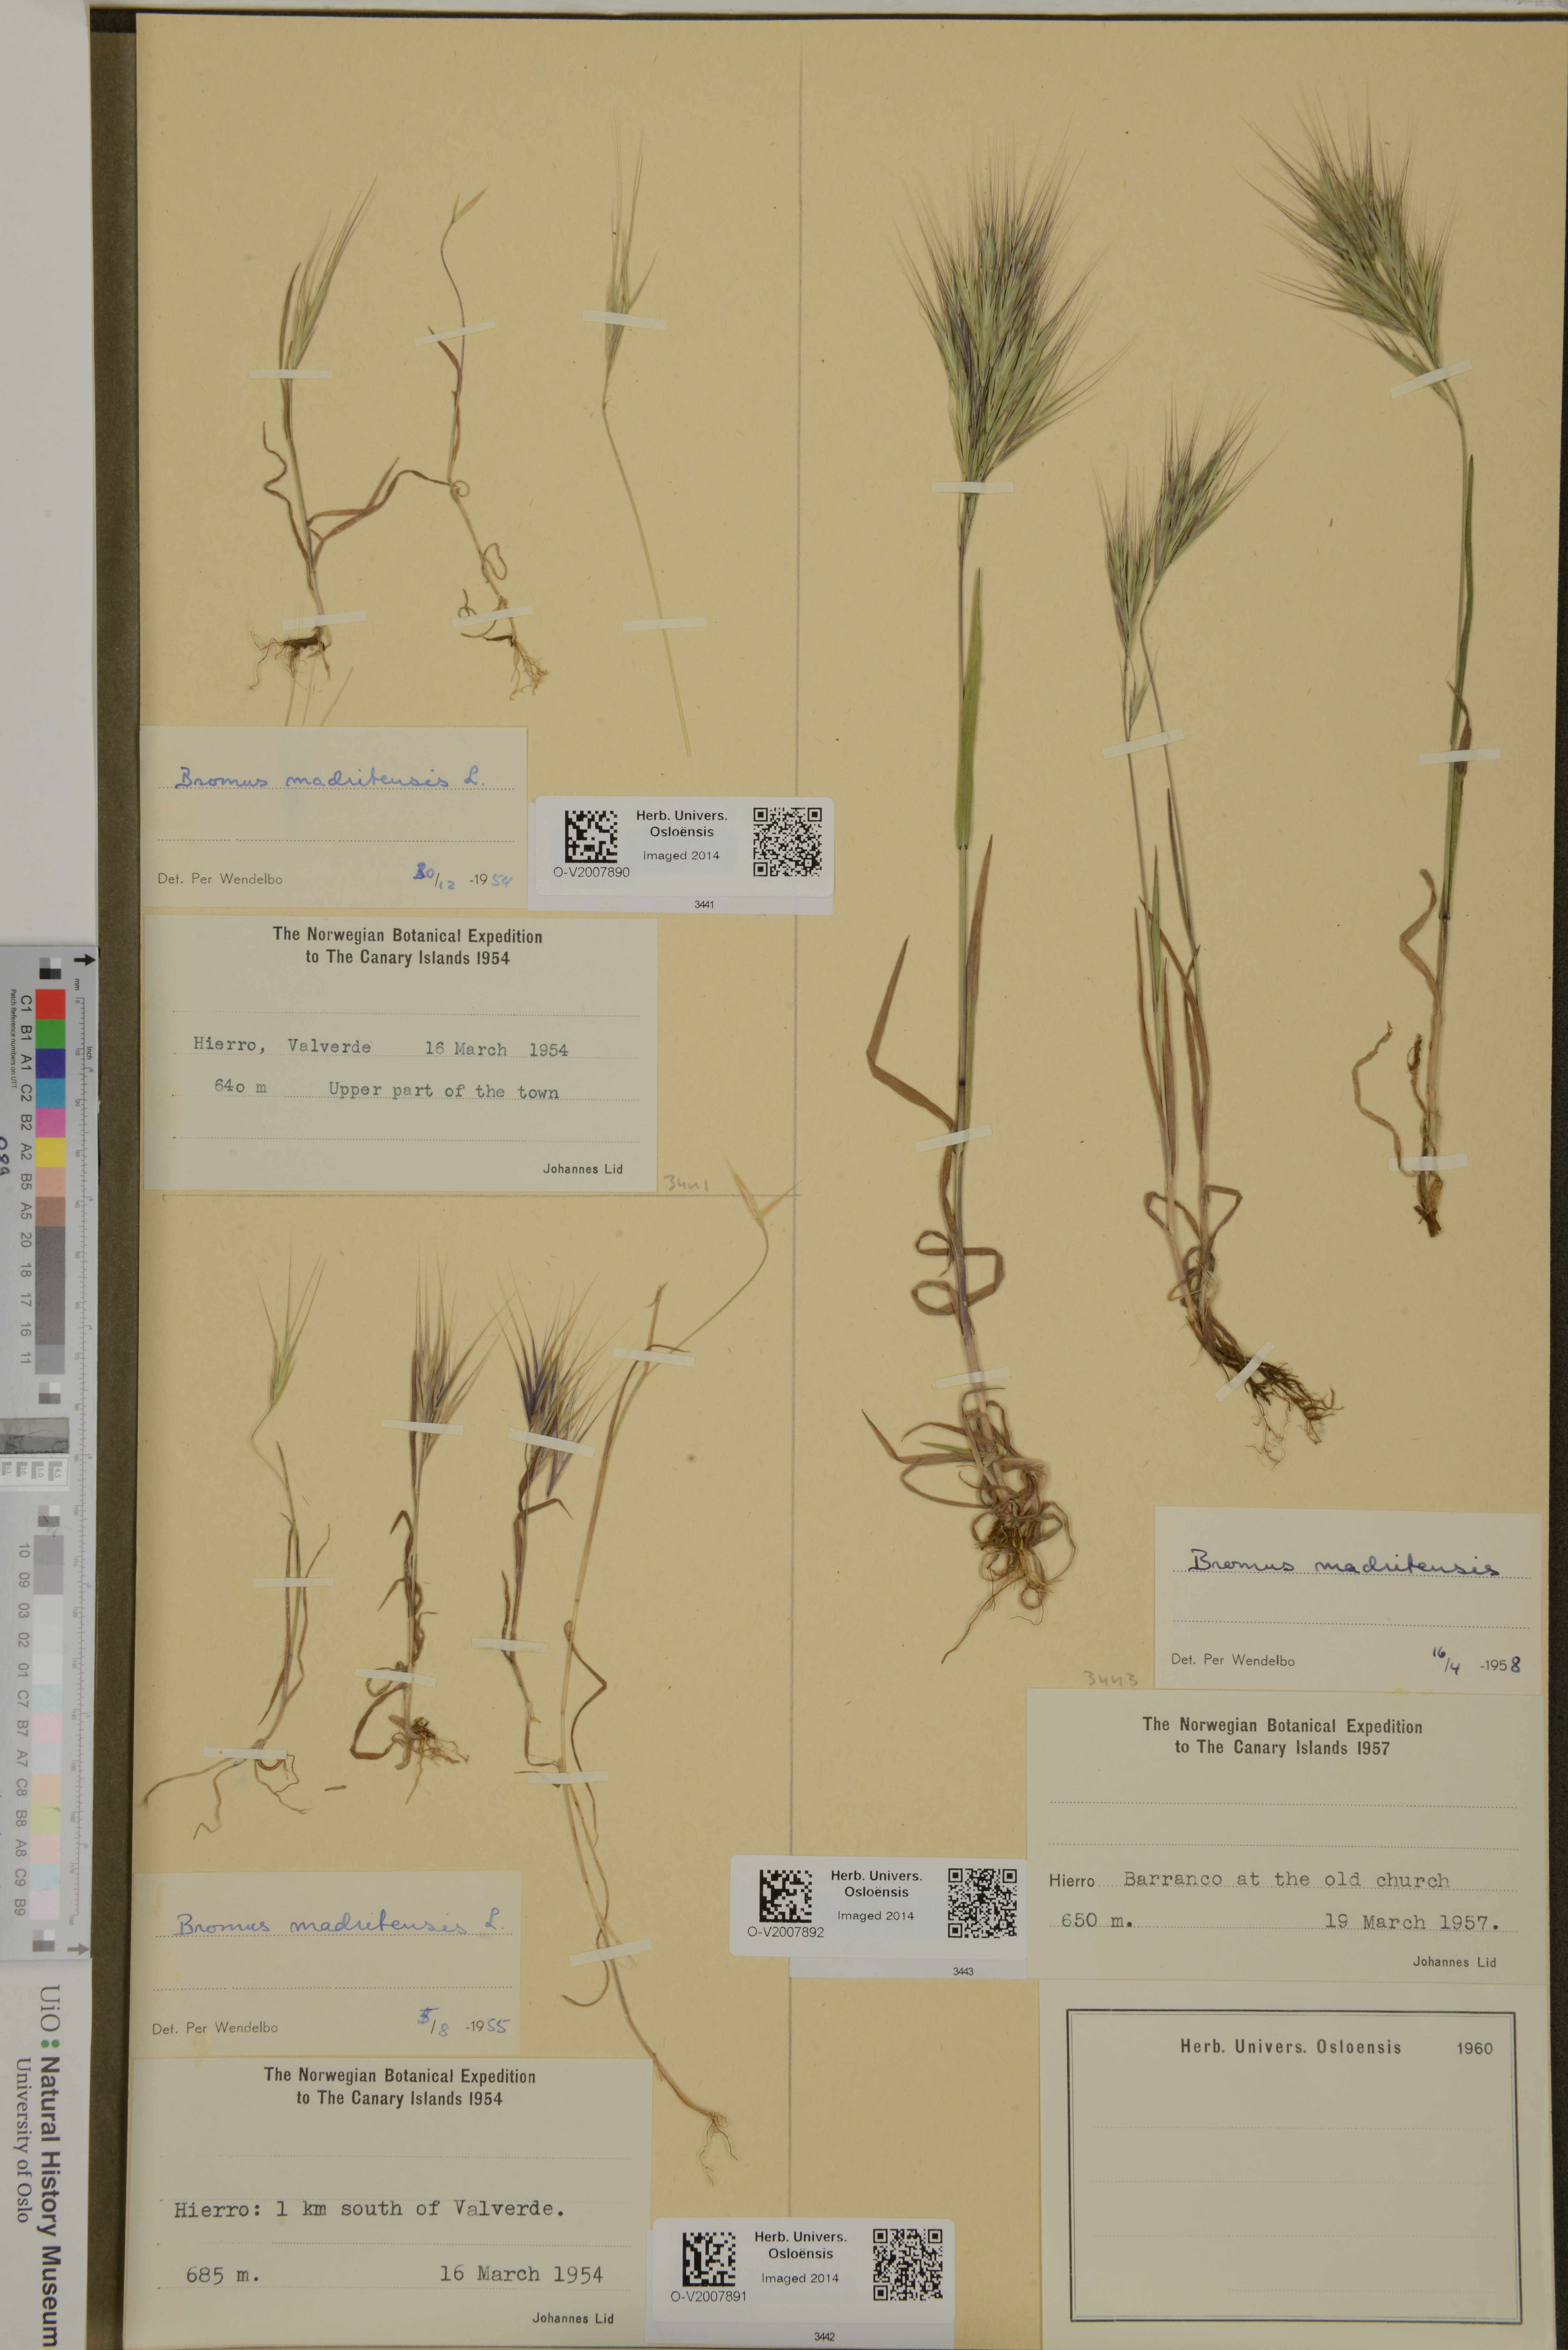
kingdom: Plantae
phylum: Tracheophyta
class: Liliopsida
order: Poales
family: Poaceae
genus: Bromus
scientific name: Bromus madritensis
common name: Compact brome
